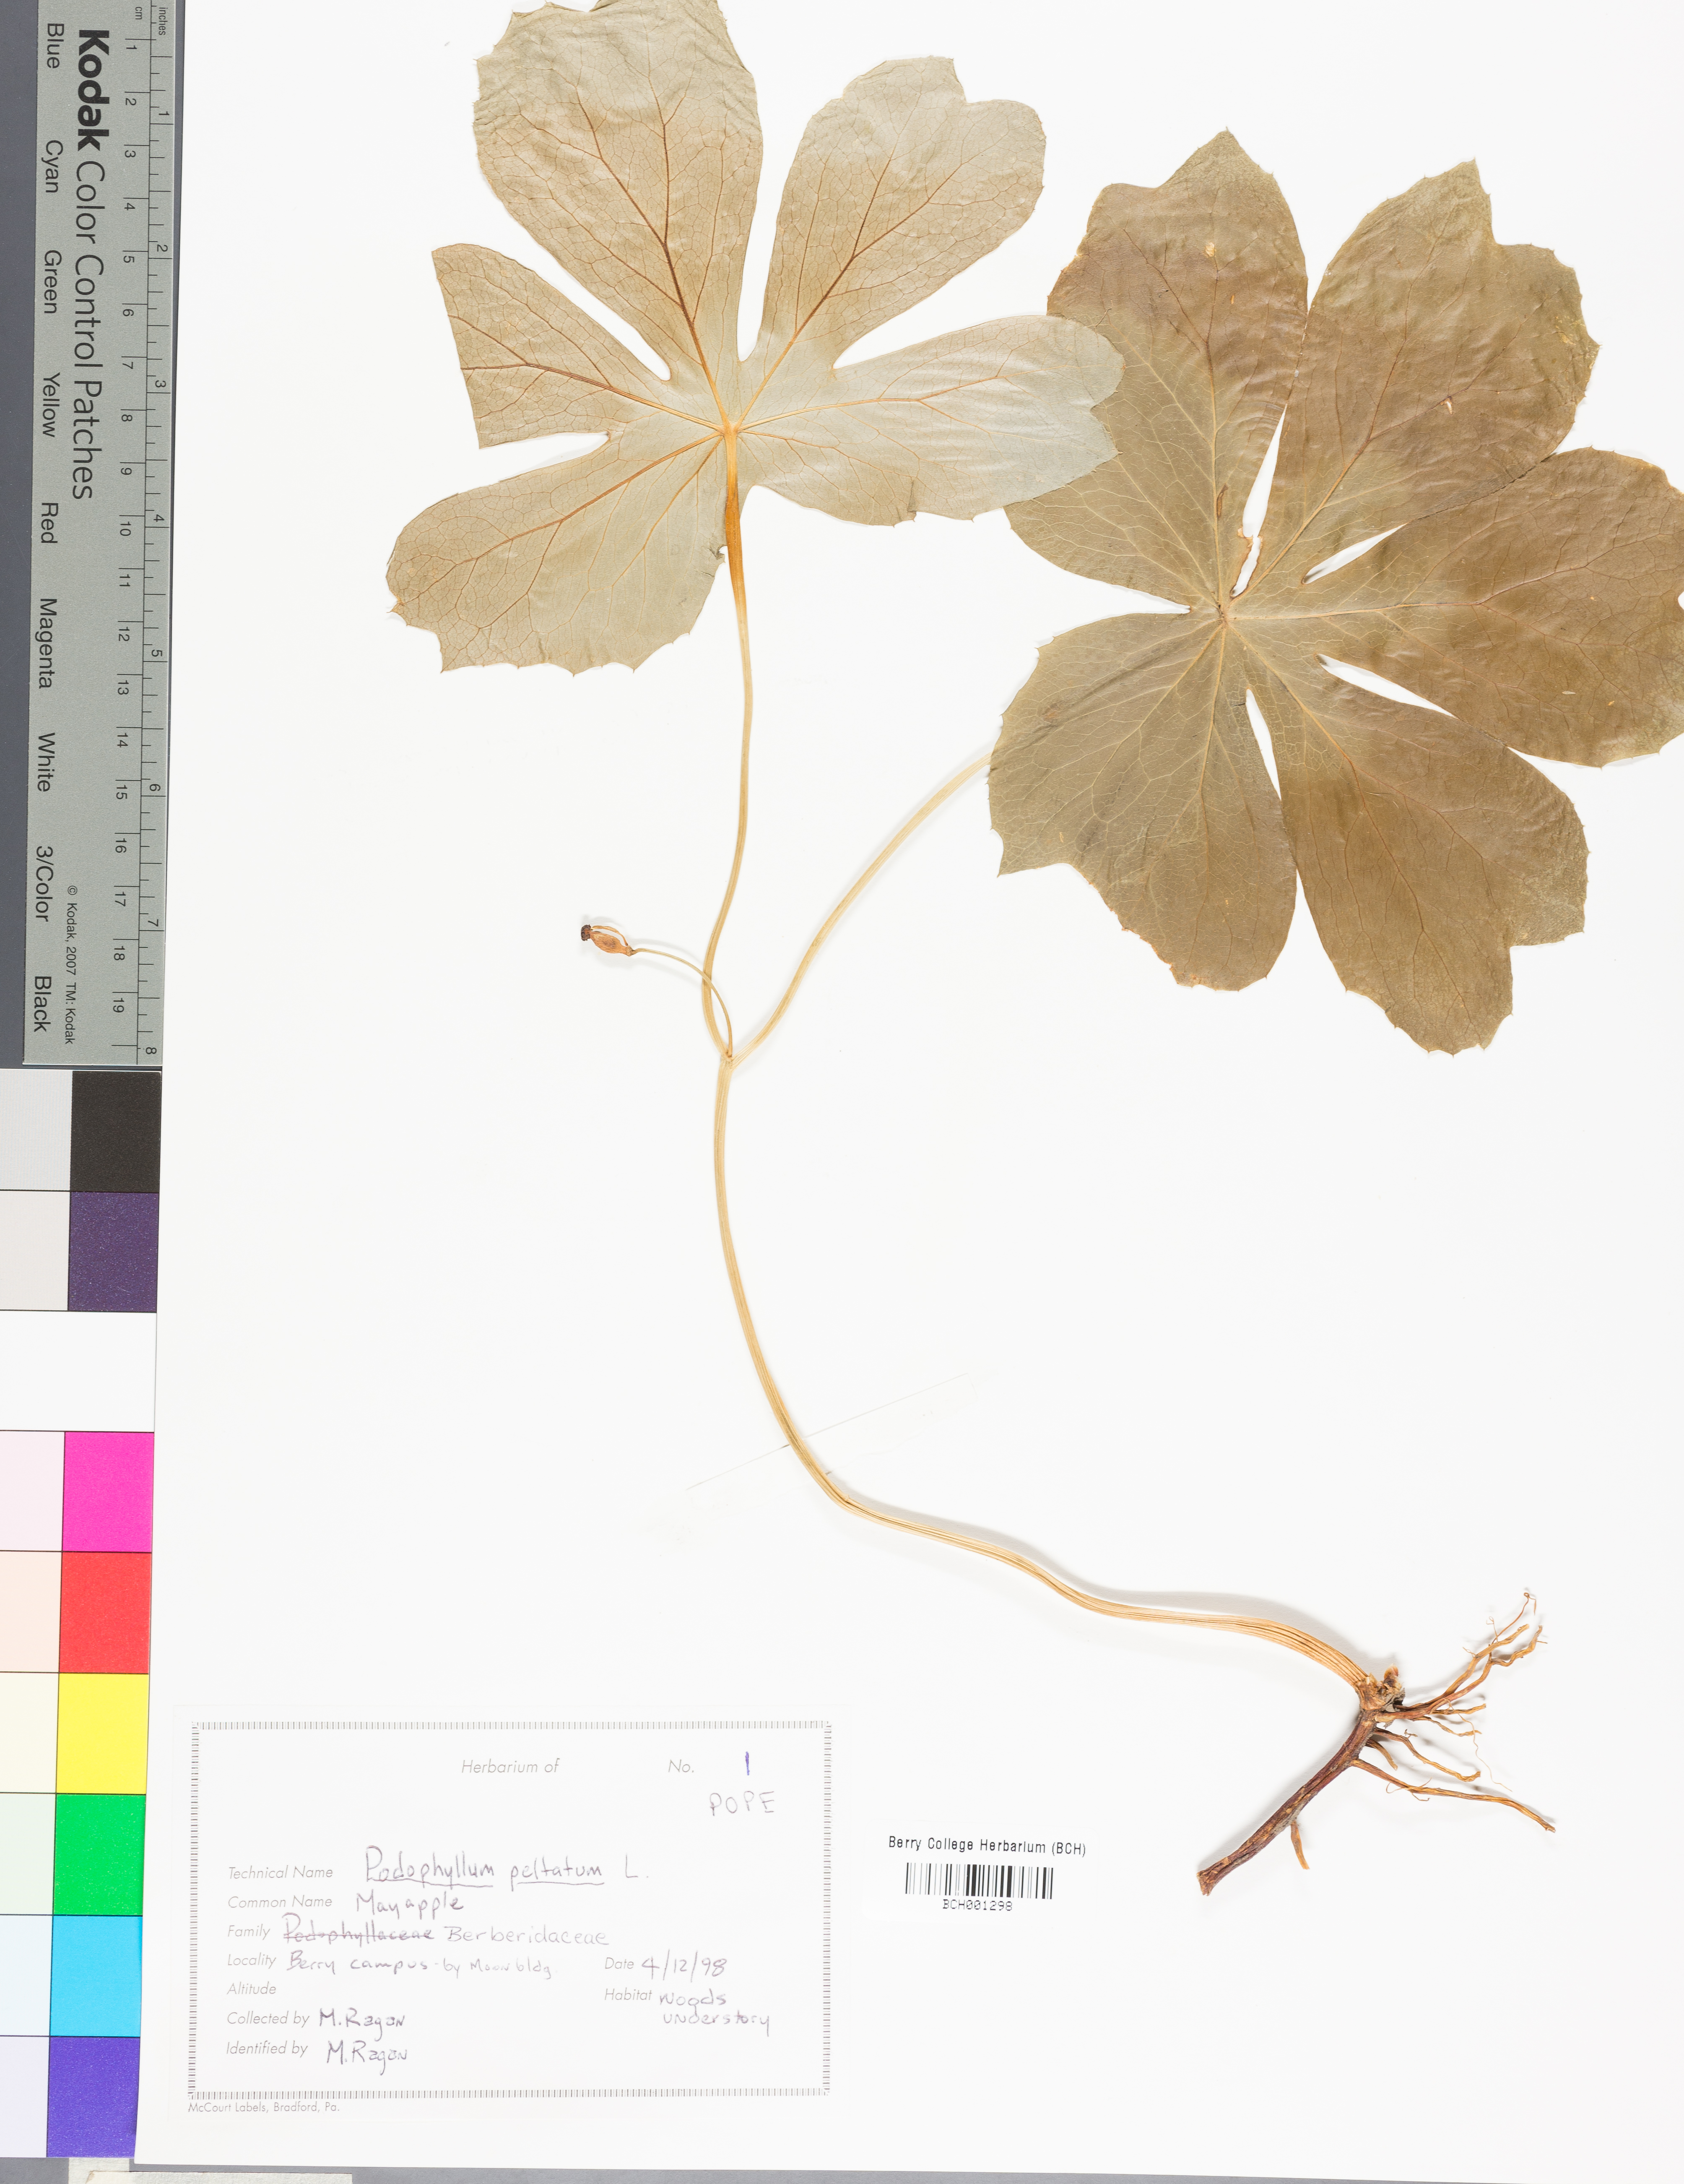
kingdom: Plantae
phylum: Tracheophyta
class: Magnoliopsida
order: Ranunculales
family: Berberidaceae
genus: Podophyllum
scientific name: Podophyllum peltatum
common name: Wild mandrake
